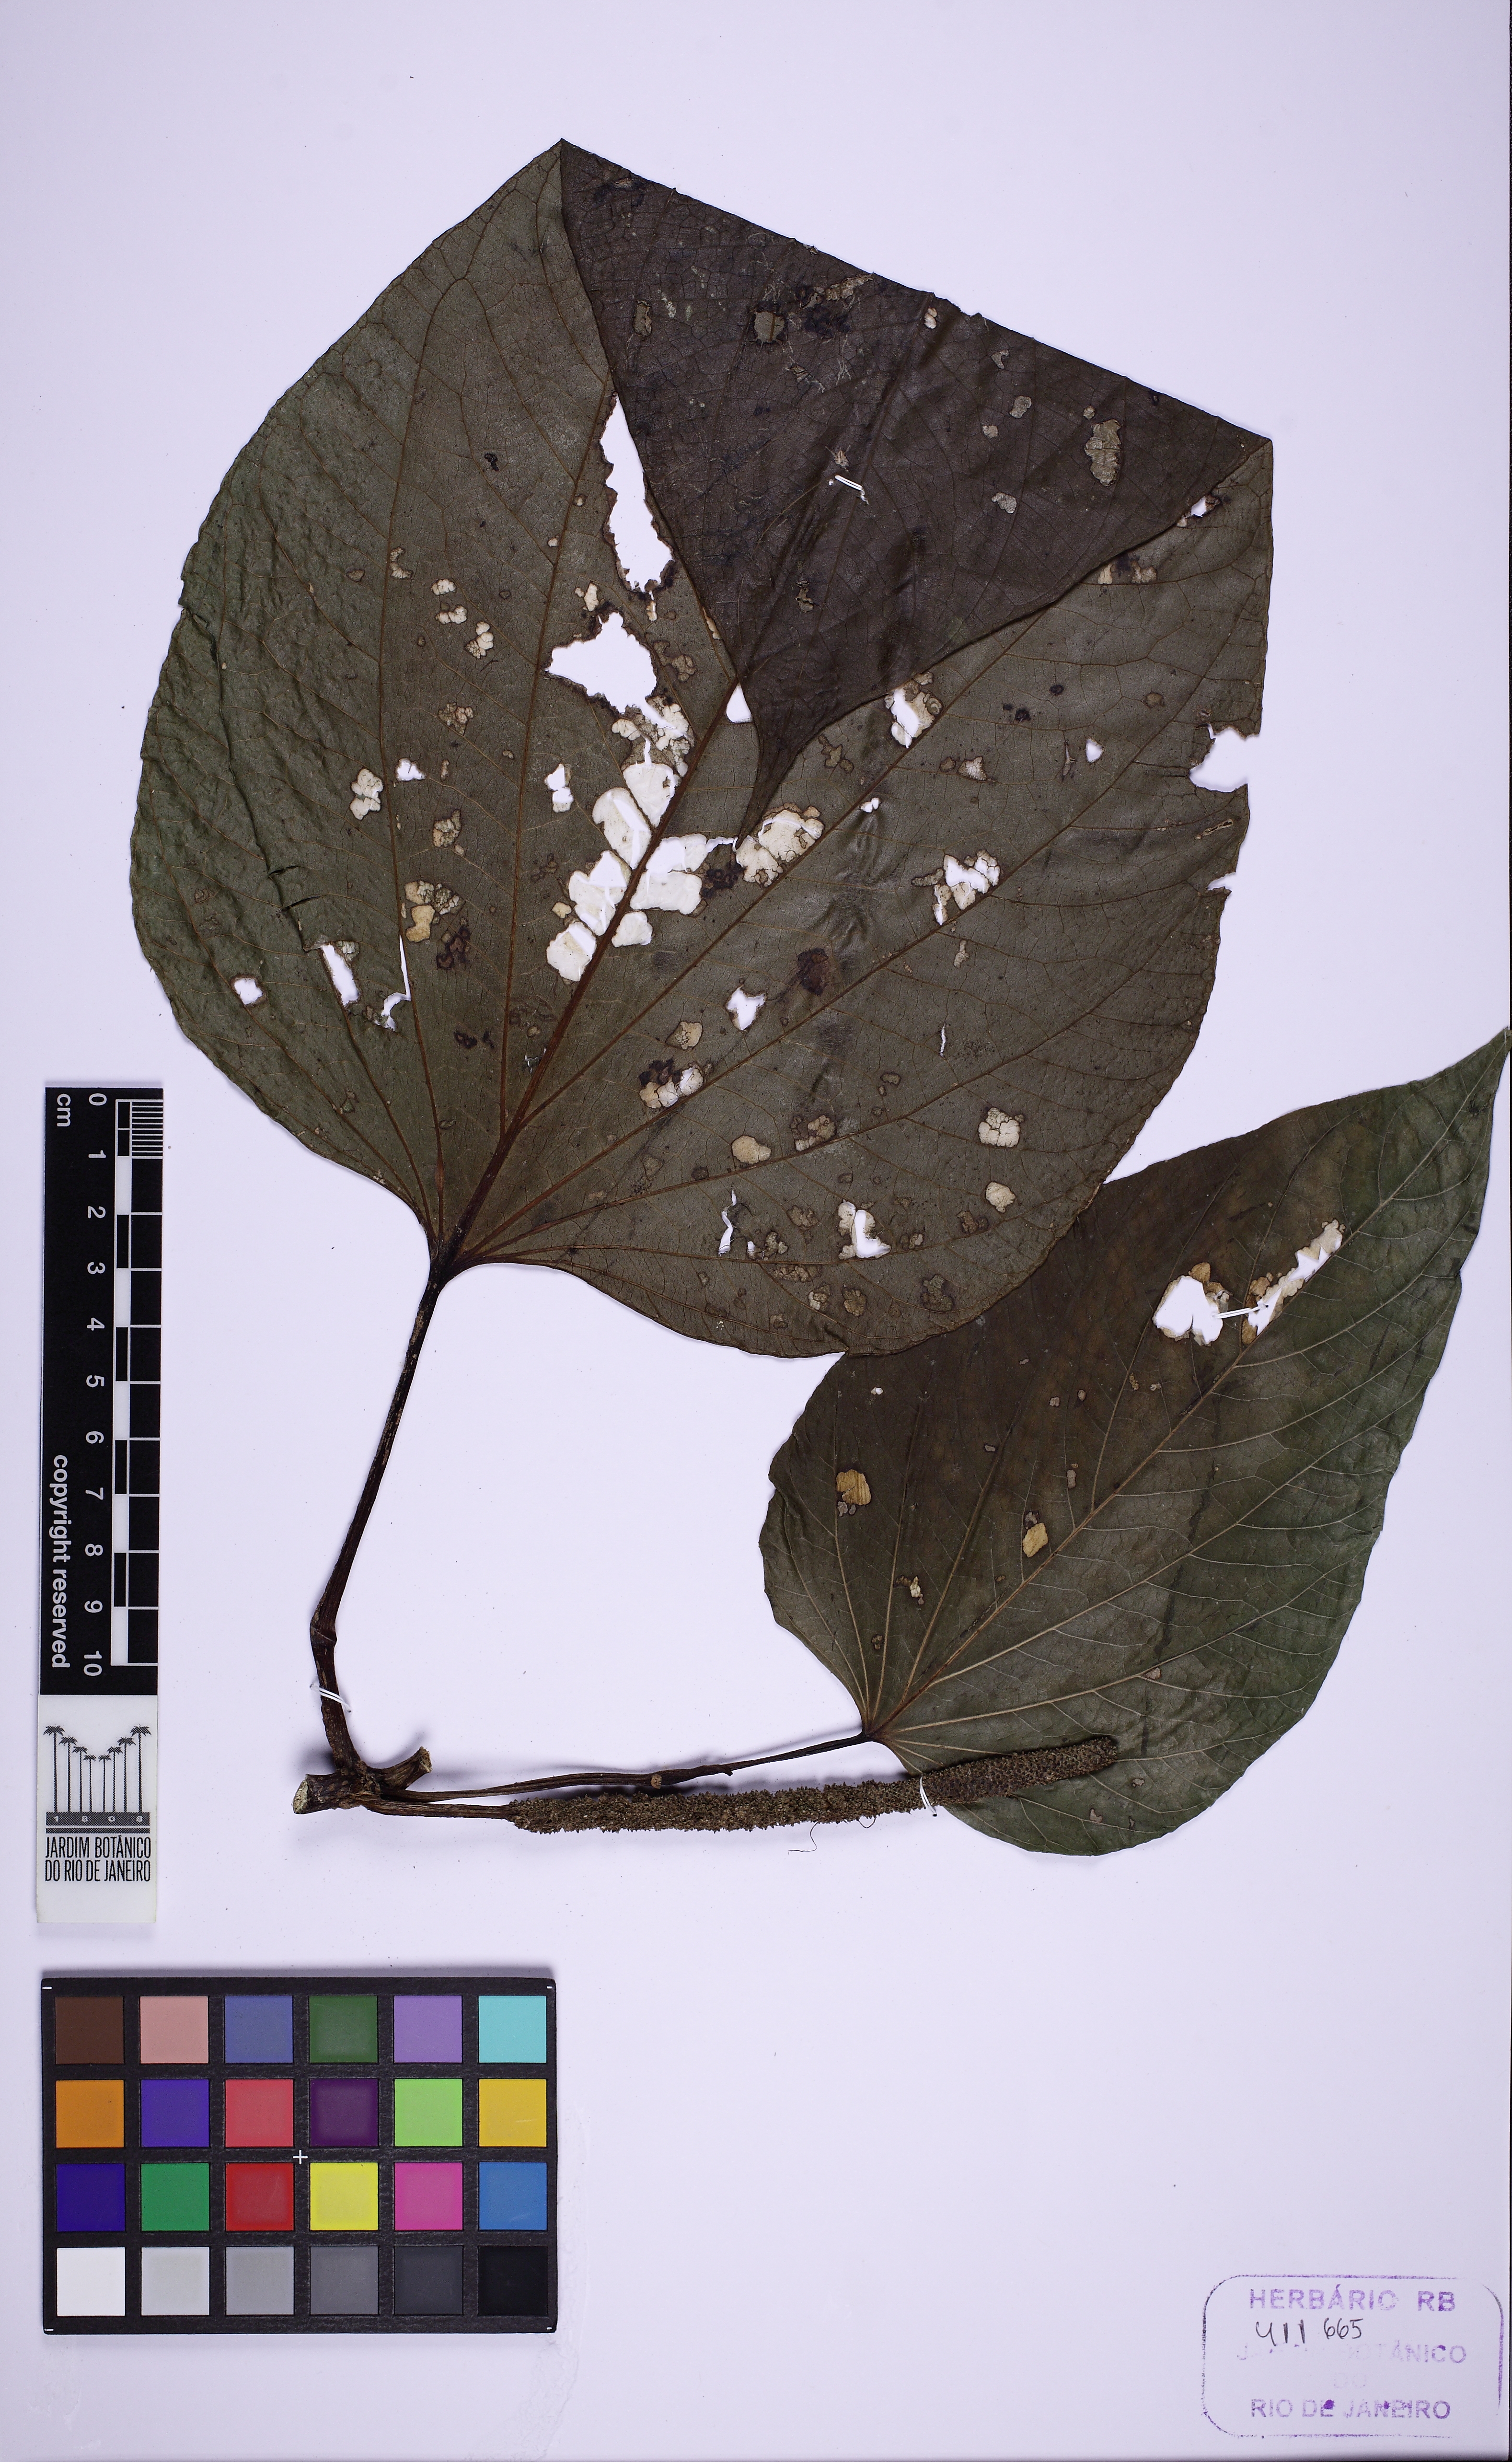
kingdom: Plantae
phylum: Tracheophyta
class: Magnoliopsida
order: Piperales
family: Piperaceae
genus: Piper
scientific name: Piper schenckii
